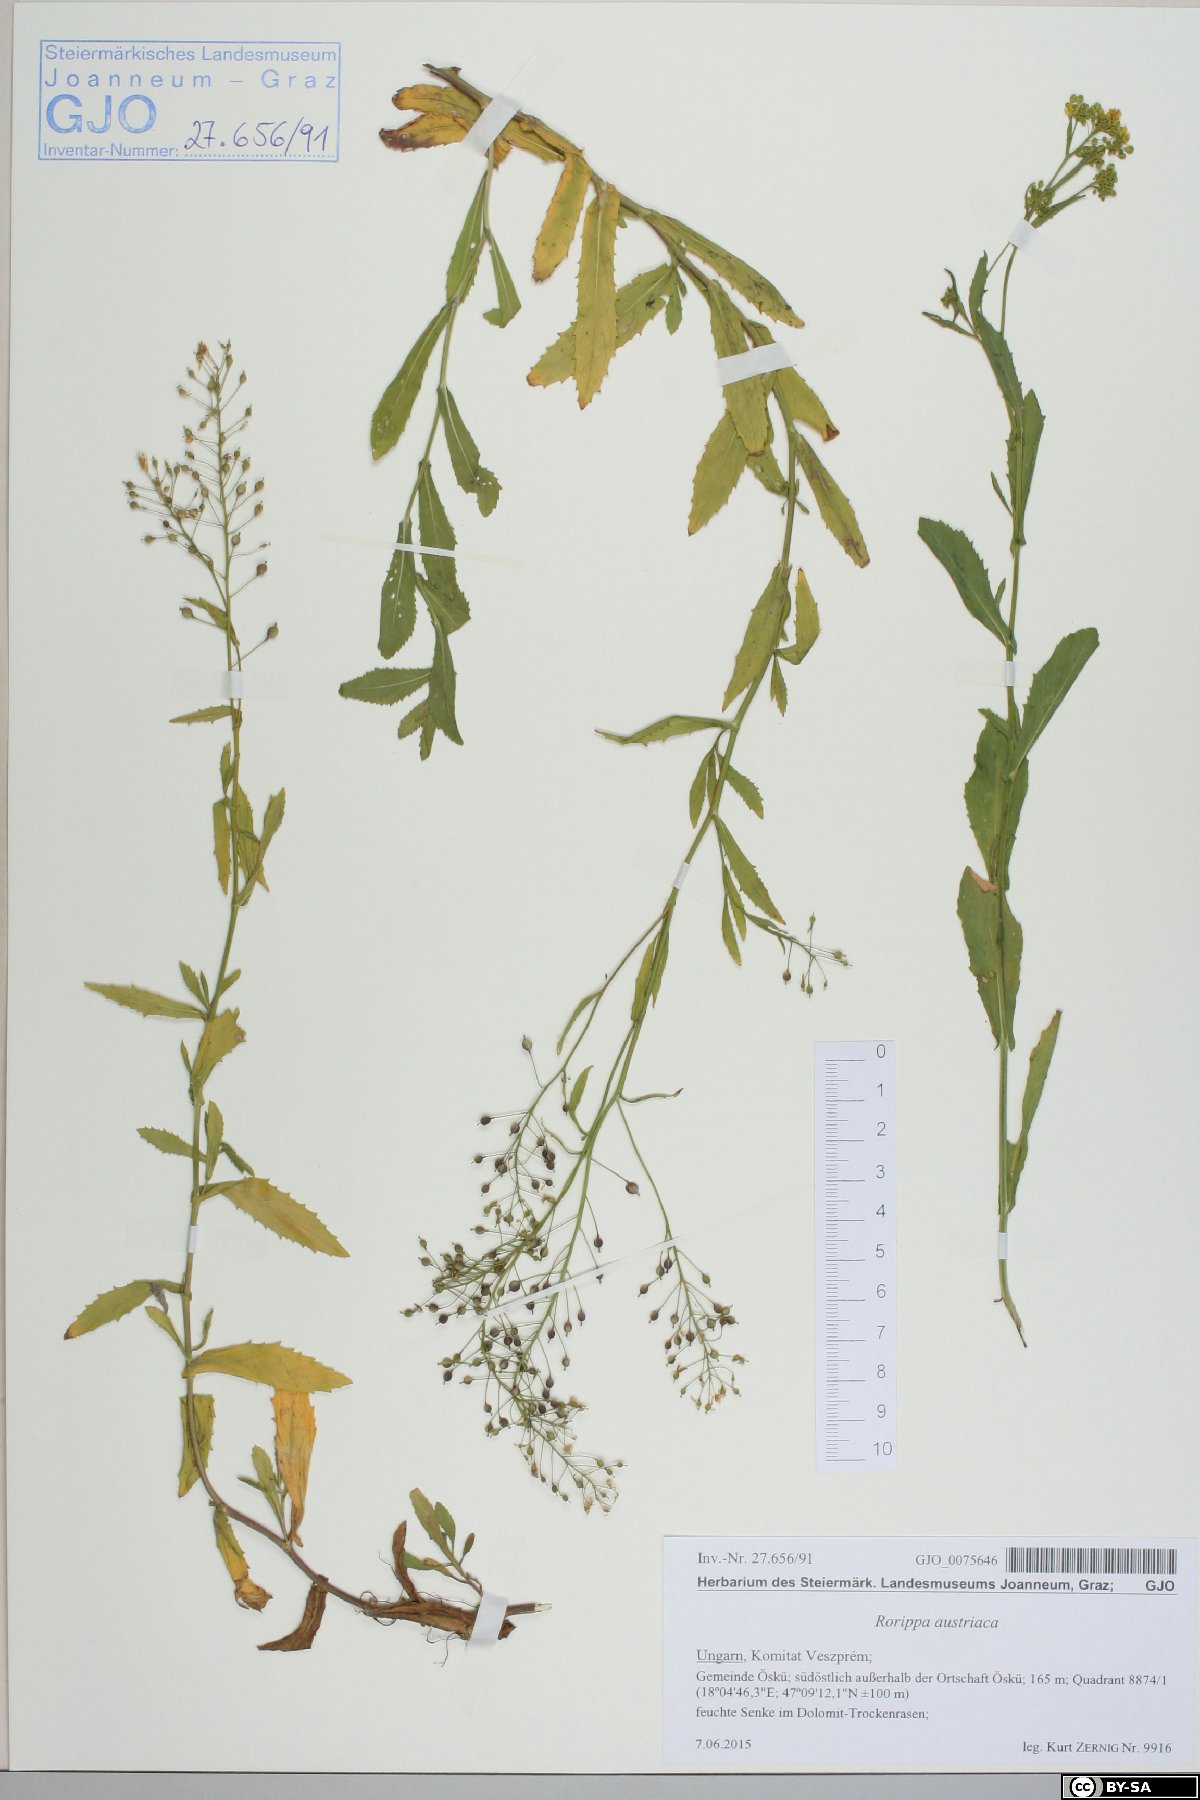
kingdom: Plantae
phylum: Tracheophyta
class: Magnoliopsida
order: Brassicales
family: Brassicaceae
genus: Rorippa
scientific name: Rorippa austriaca
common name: Austrian yellow-cress
